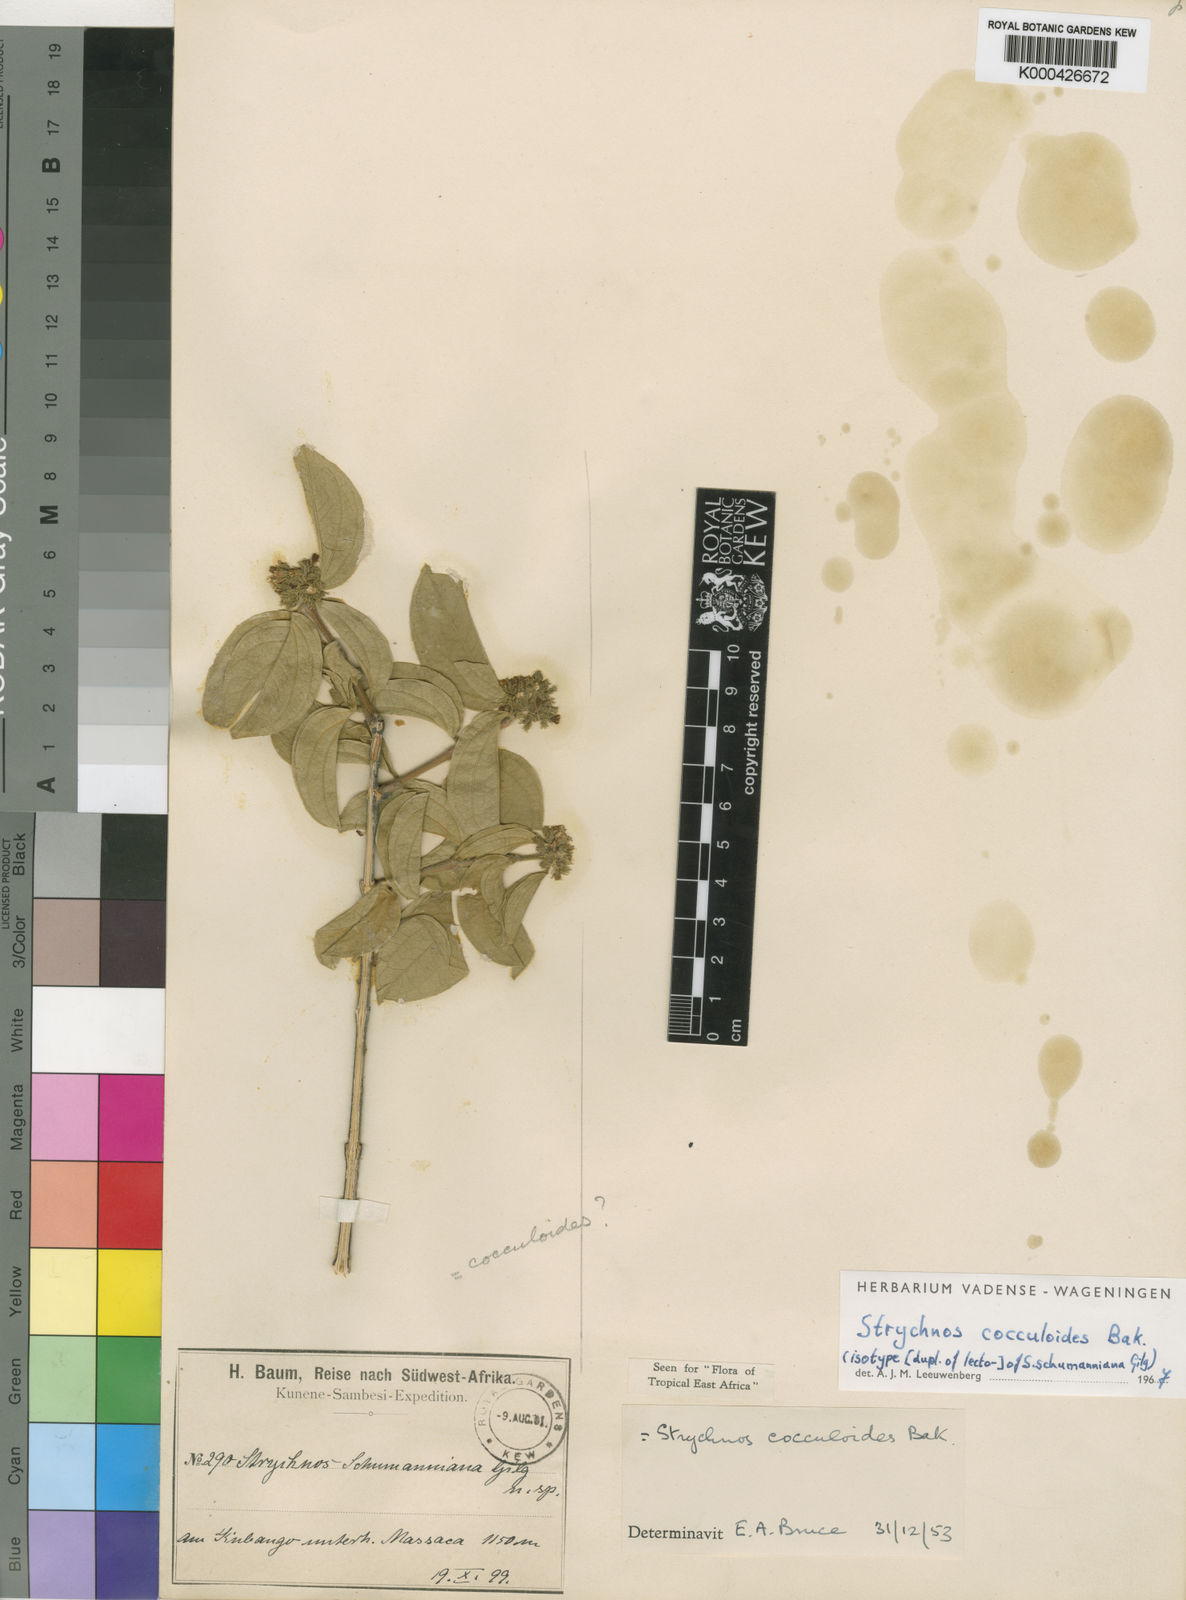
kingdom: Plantae
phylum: Tracheophyta
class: Magnoliopsida
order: Gentianales
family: Loganiaceae
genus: Strychnos
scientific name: Strychnos cocculoides
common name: Corky-bark monkey-orange
